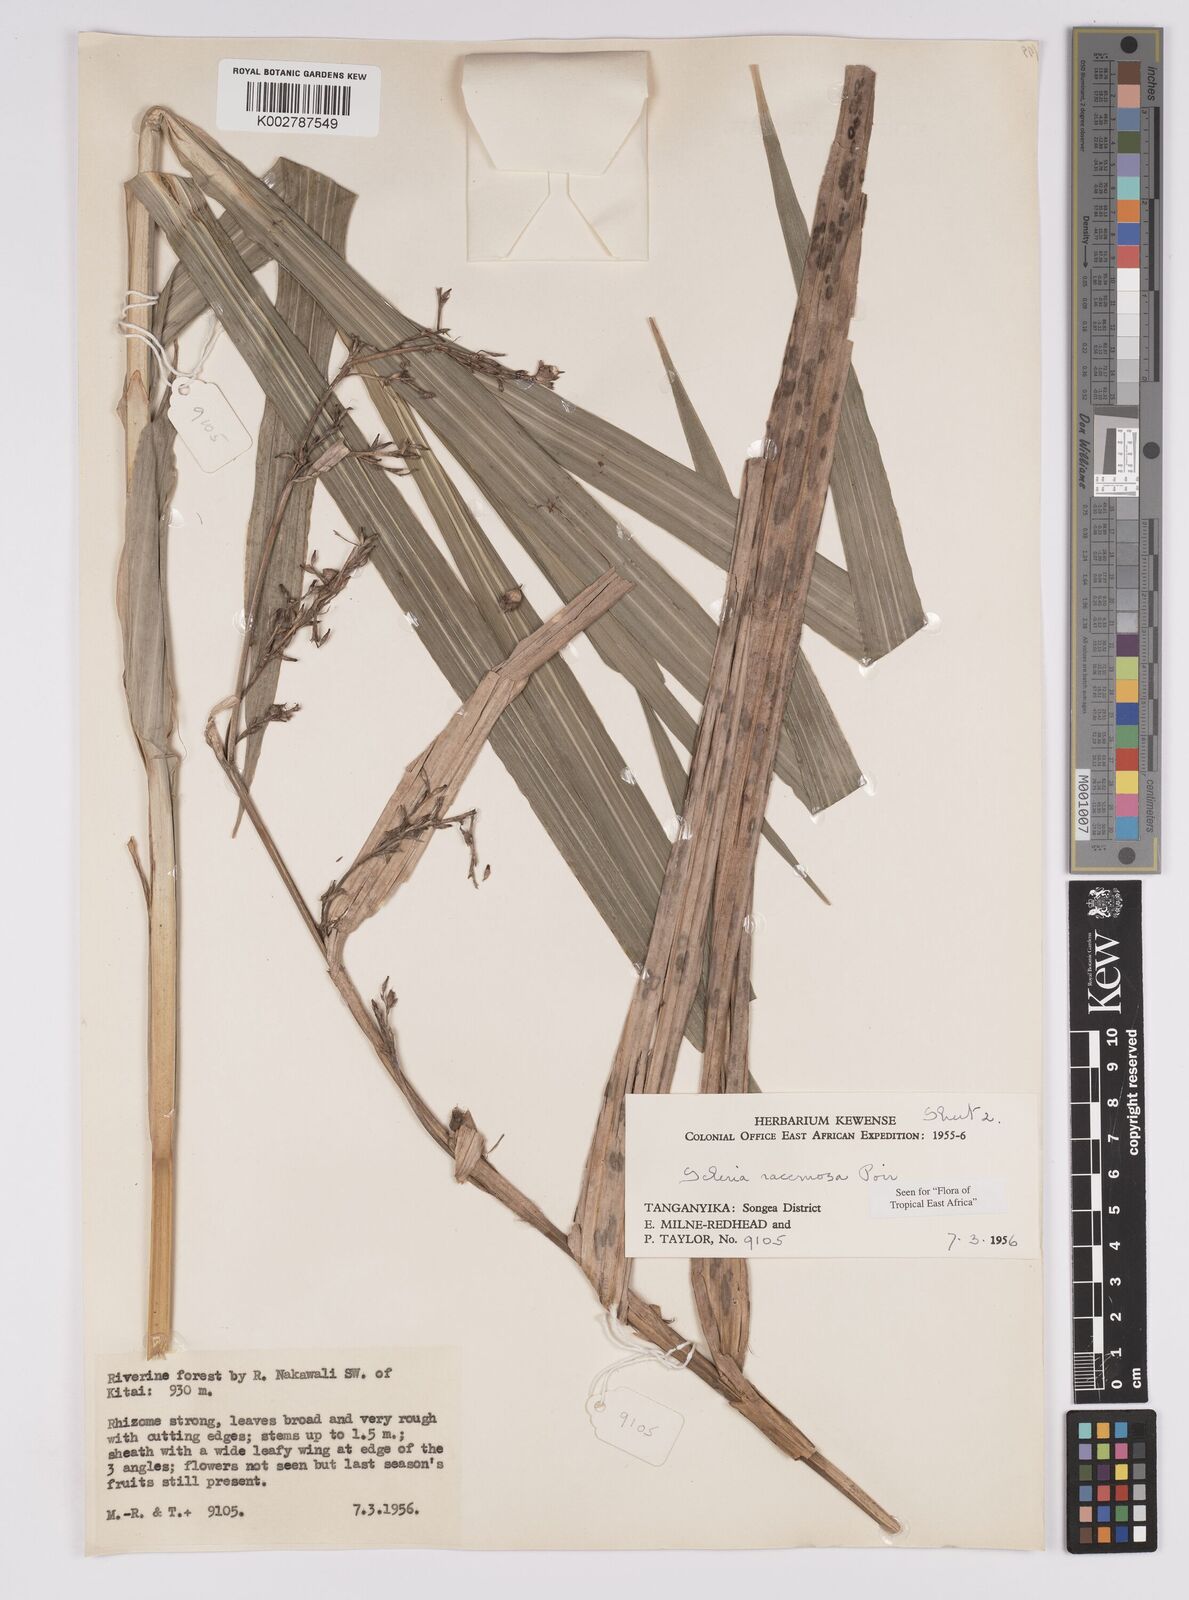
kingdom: Plantae
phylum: Tracheophyta
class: Liliopsida
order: Poales
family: Cyperaceae
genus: Scleria
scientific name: Scleria racemosa
